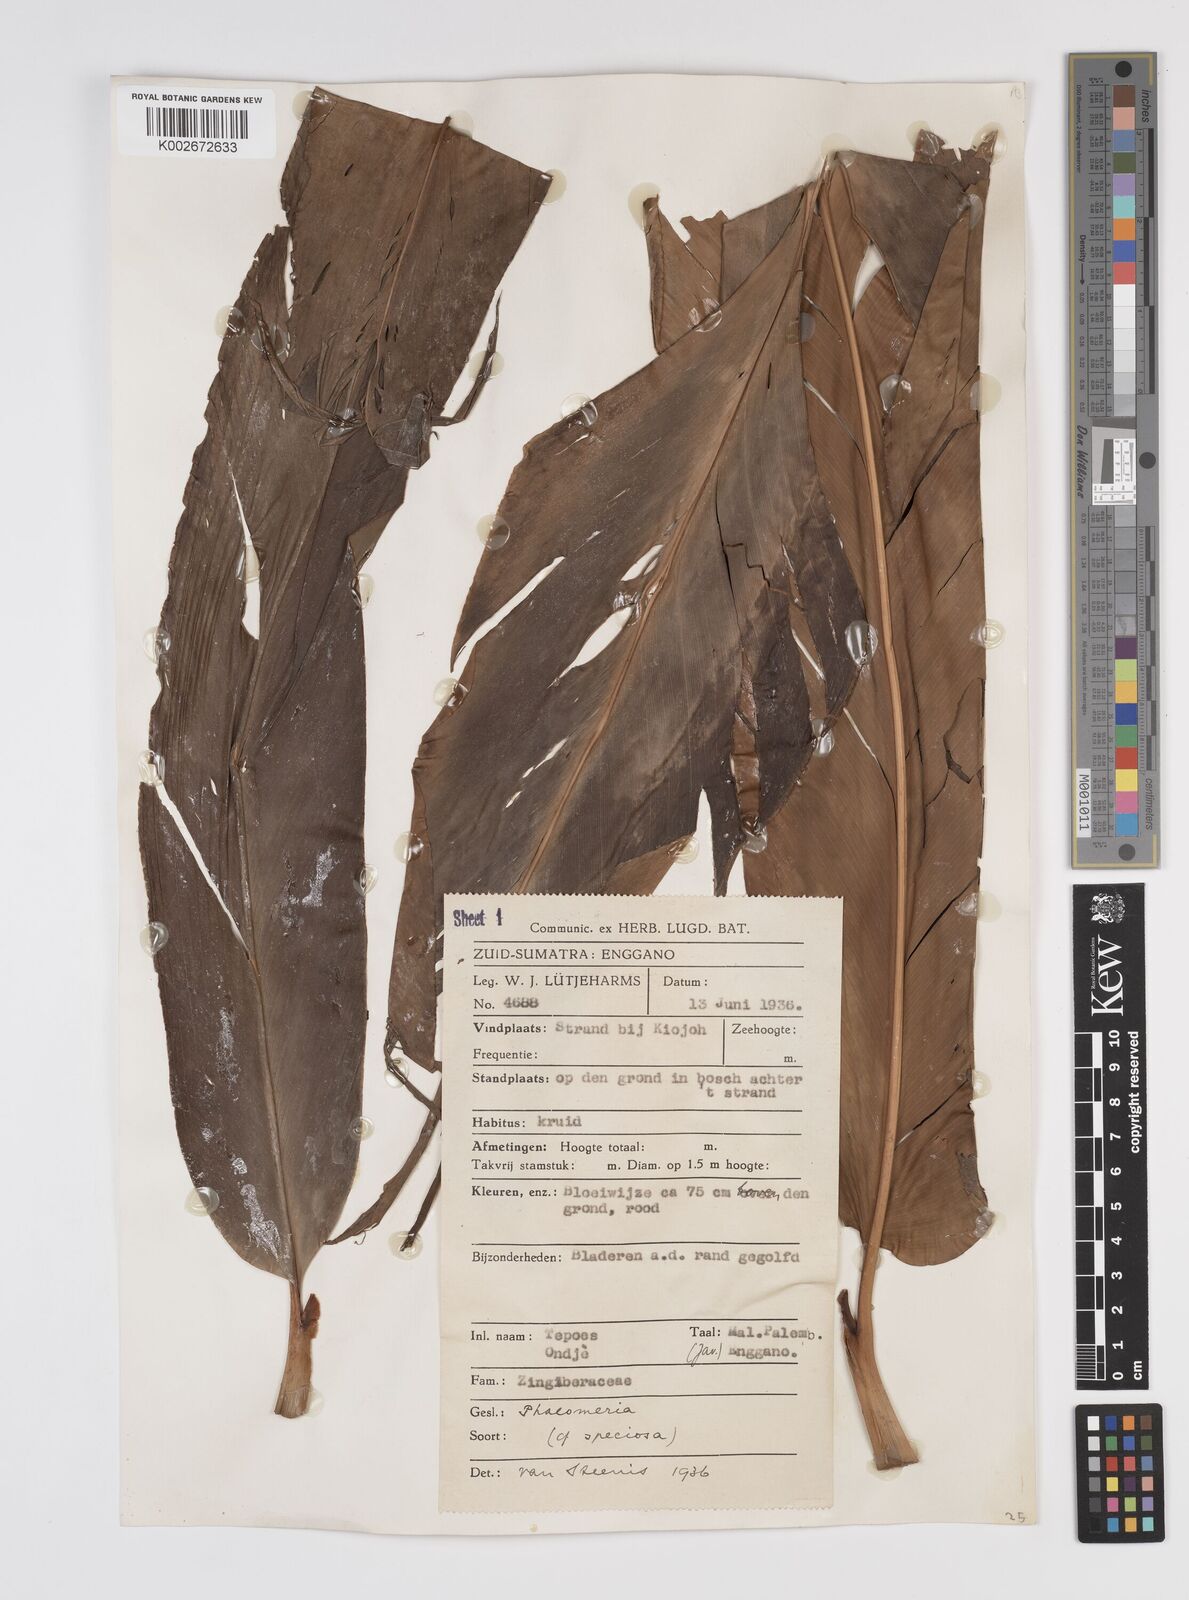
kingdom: Plantae
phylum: Tracheophyta
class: Liliopsida
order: Zingiberales
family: Zingiberaceae
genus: Etlingera
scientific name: Etlingera elatior
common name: Philippine waxflower
